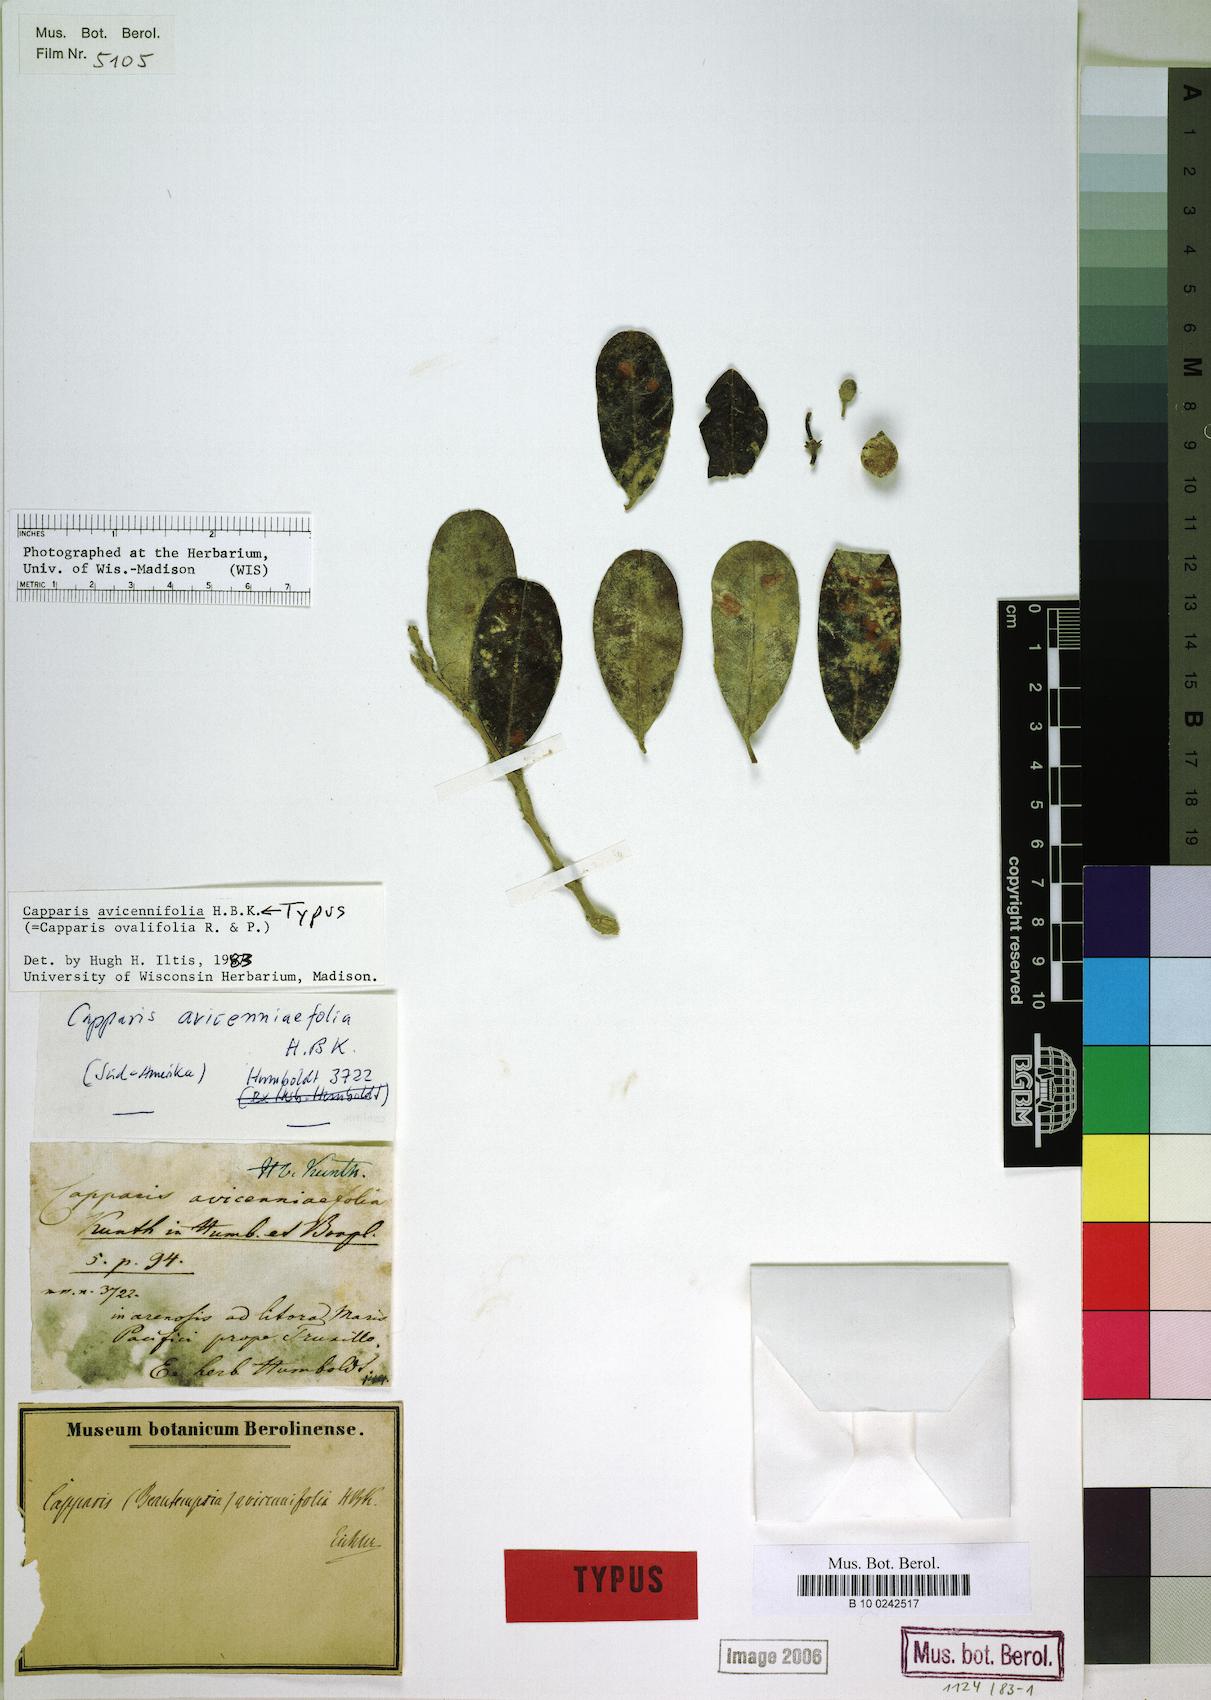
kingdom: Plantae
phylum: Tracheophyta
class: Magnoliopsida
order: Brassicales
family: Capparaceae
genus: Beautempsia
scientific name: Beautempsia avicenniifolia
